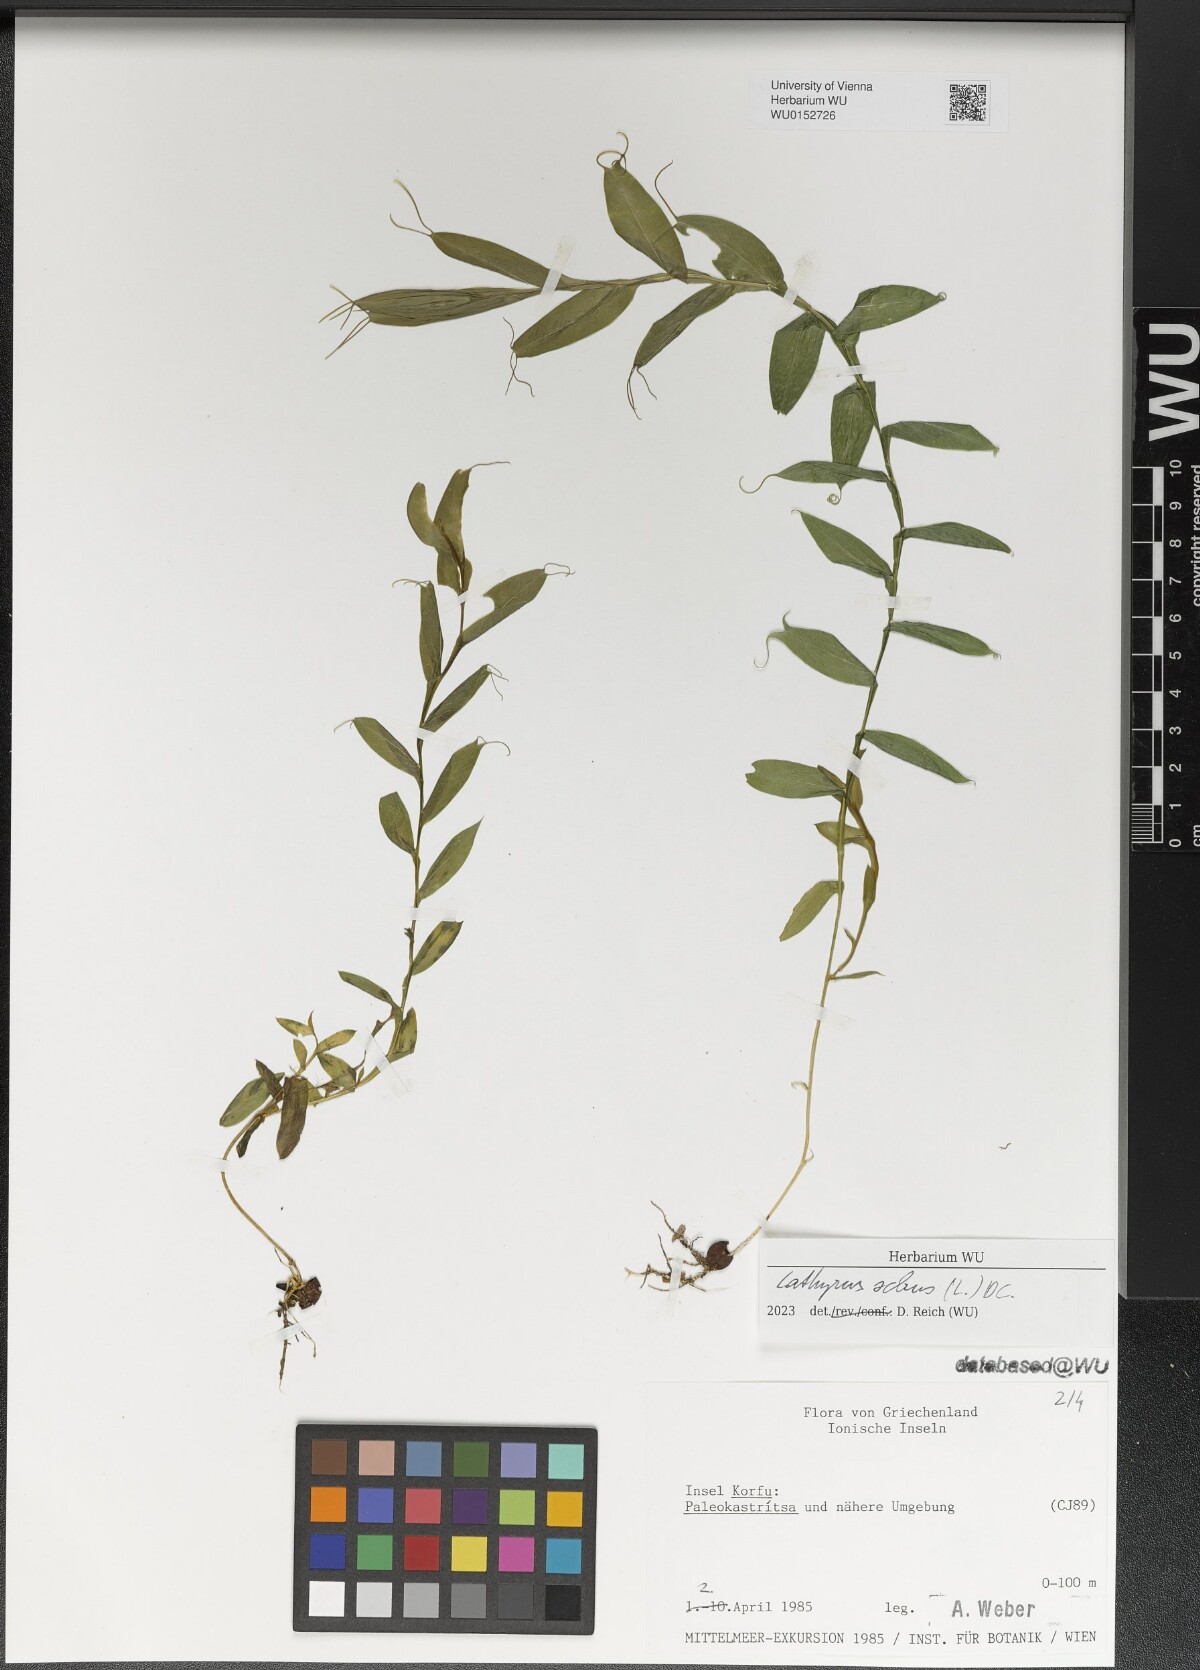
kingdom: Plantae
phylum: Tracheophyta
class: Magnoliopsida
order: Fabales
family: Fabaceae
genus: Lathyrus
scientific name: Lathyrus ochrus
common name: Winged vetchling
